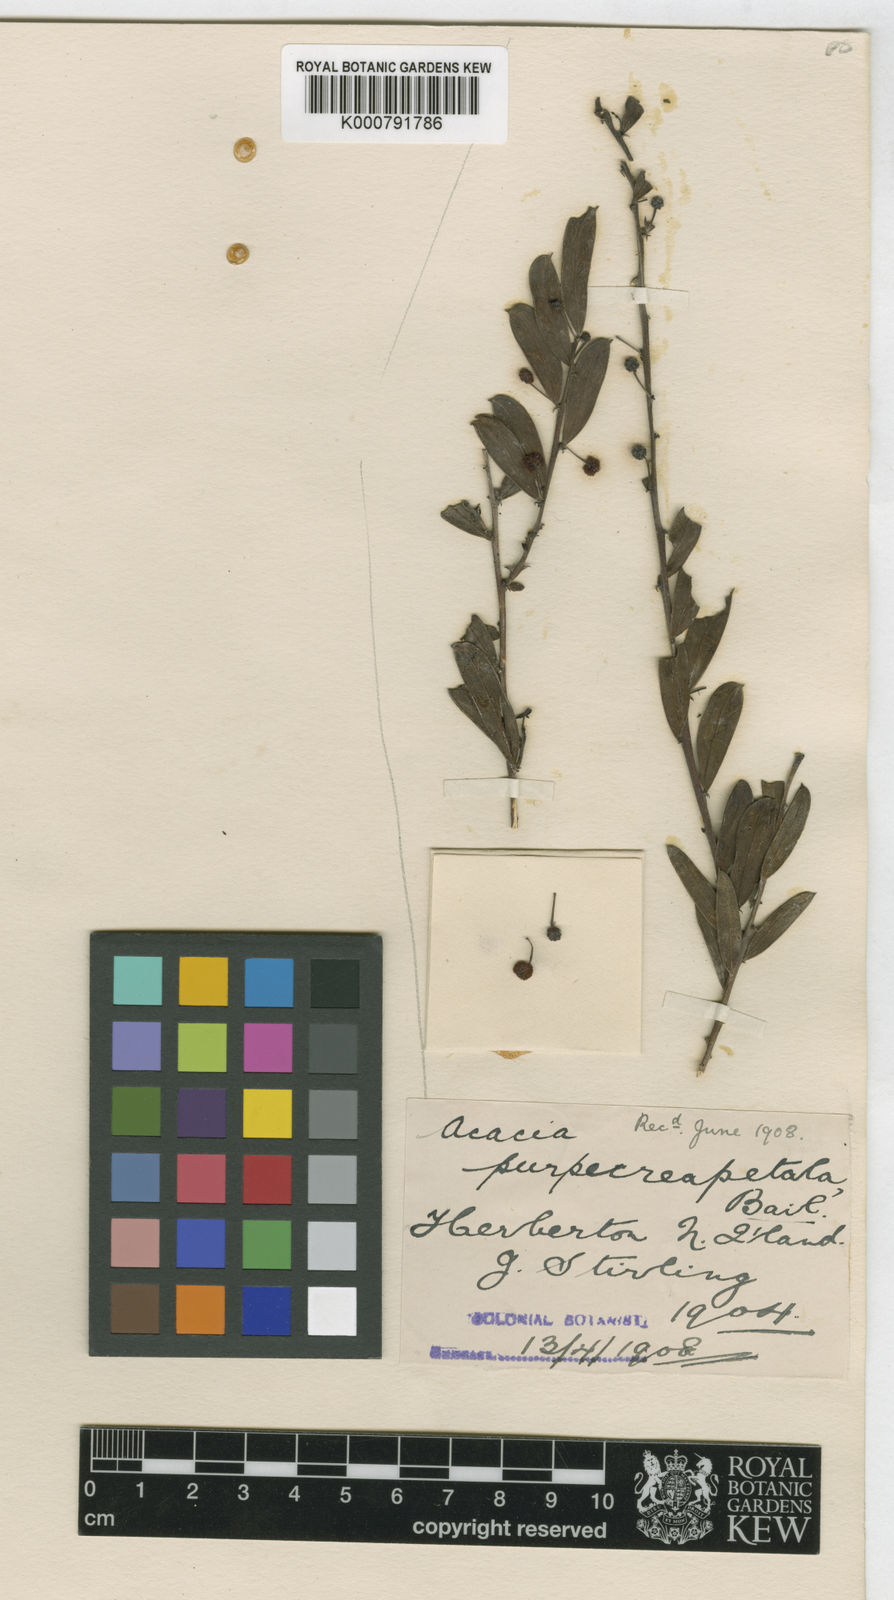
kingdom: Plantae
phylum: Tracheophyta
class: Magnoliopsida
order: Fabales
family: Fabaceae
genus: Acacia
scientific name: Acacia purpureapetala
